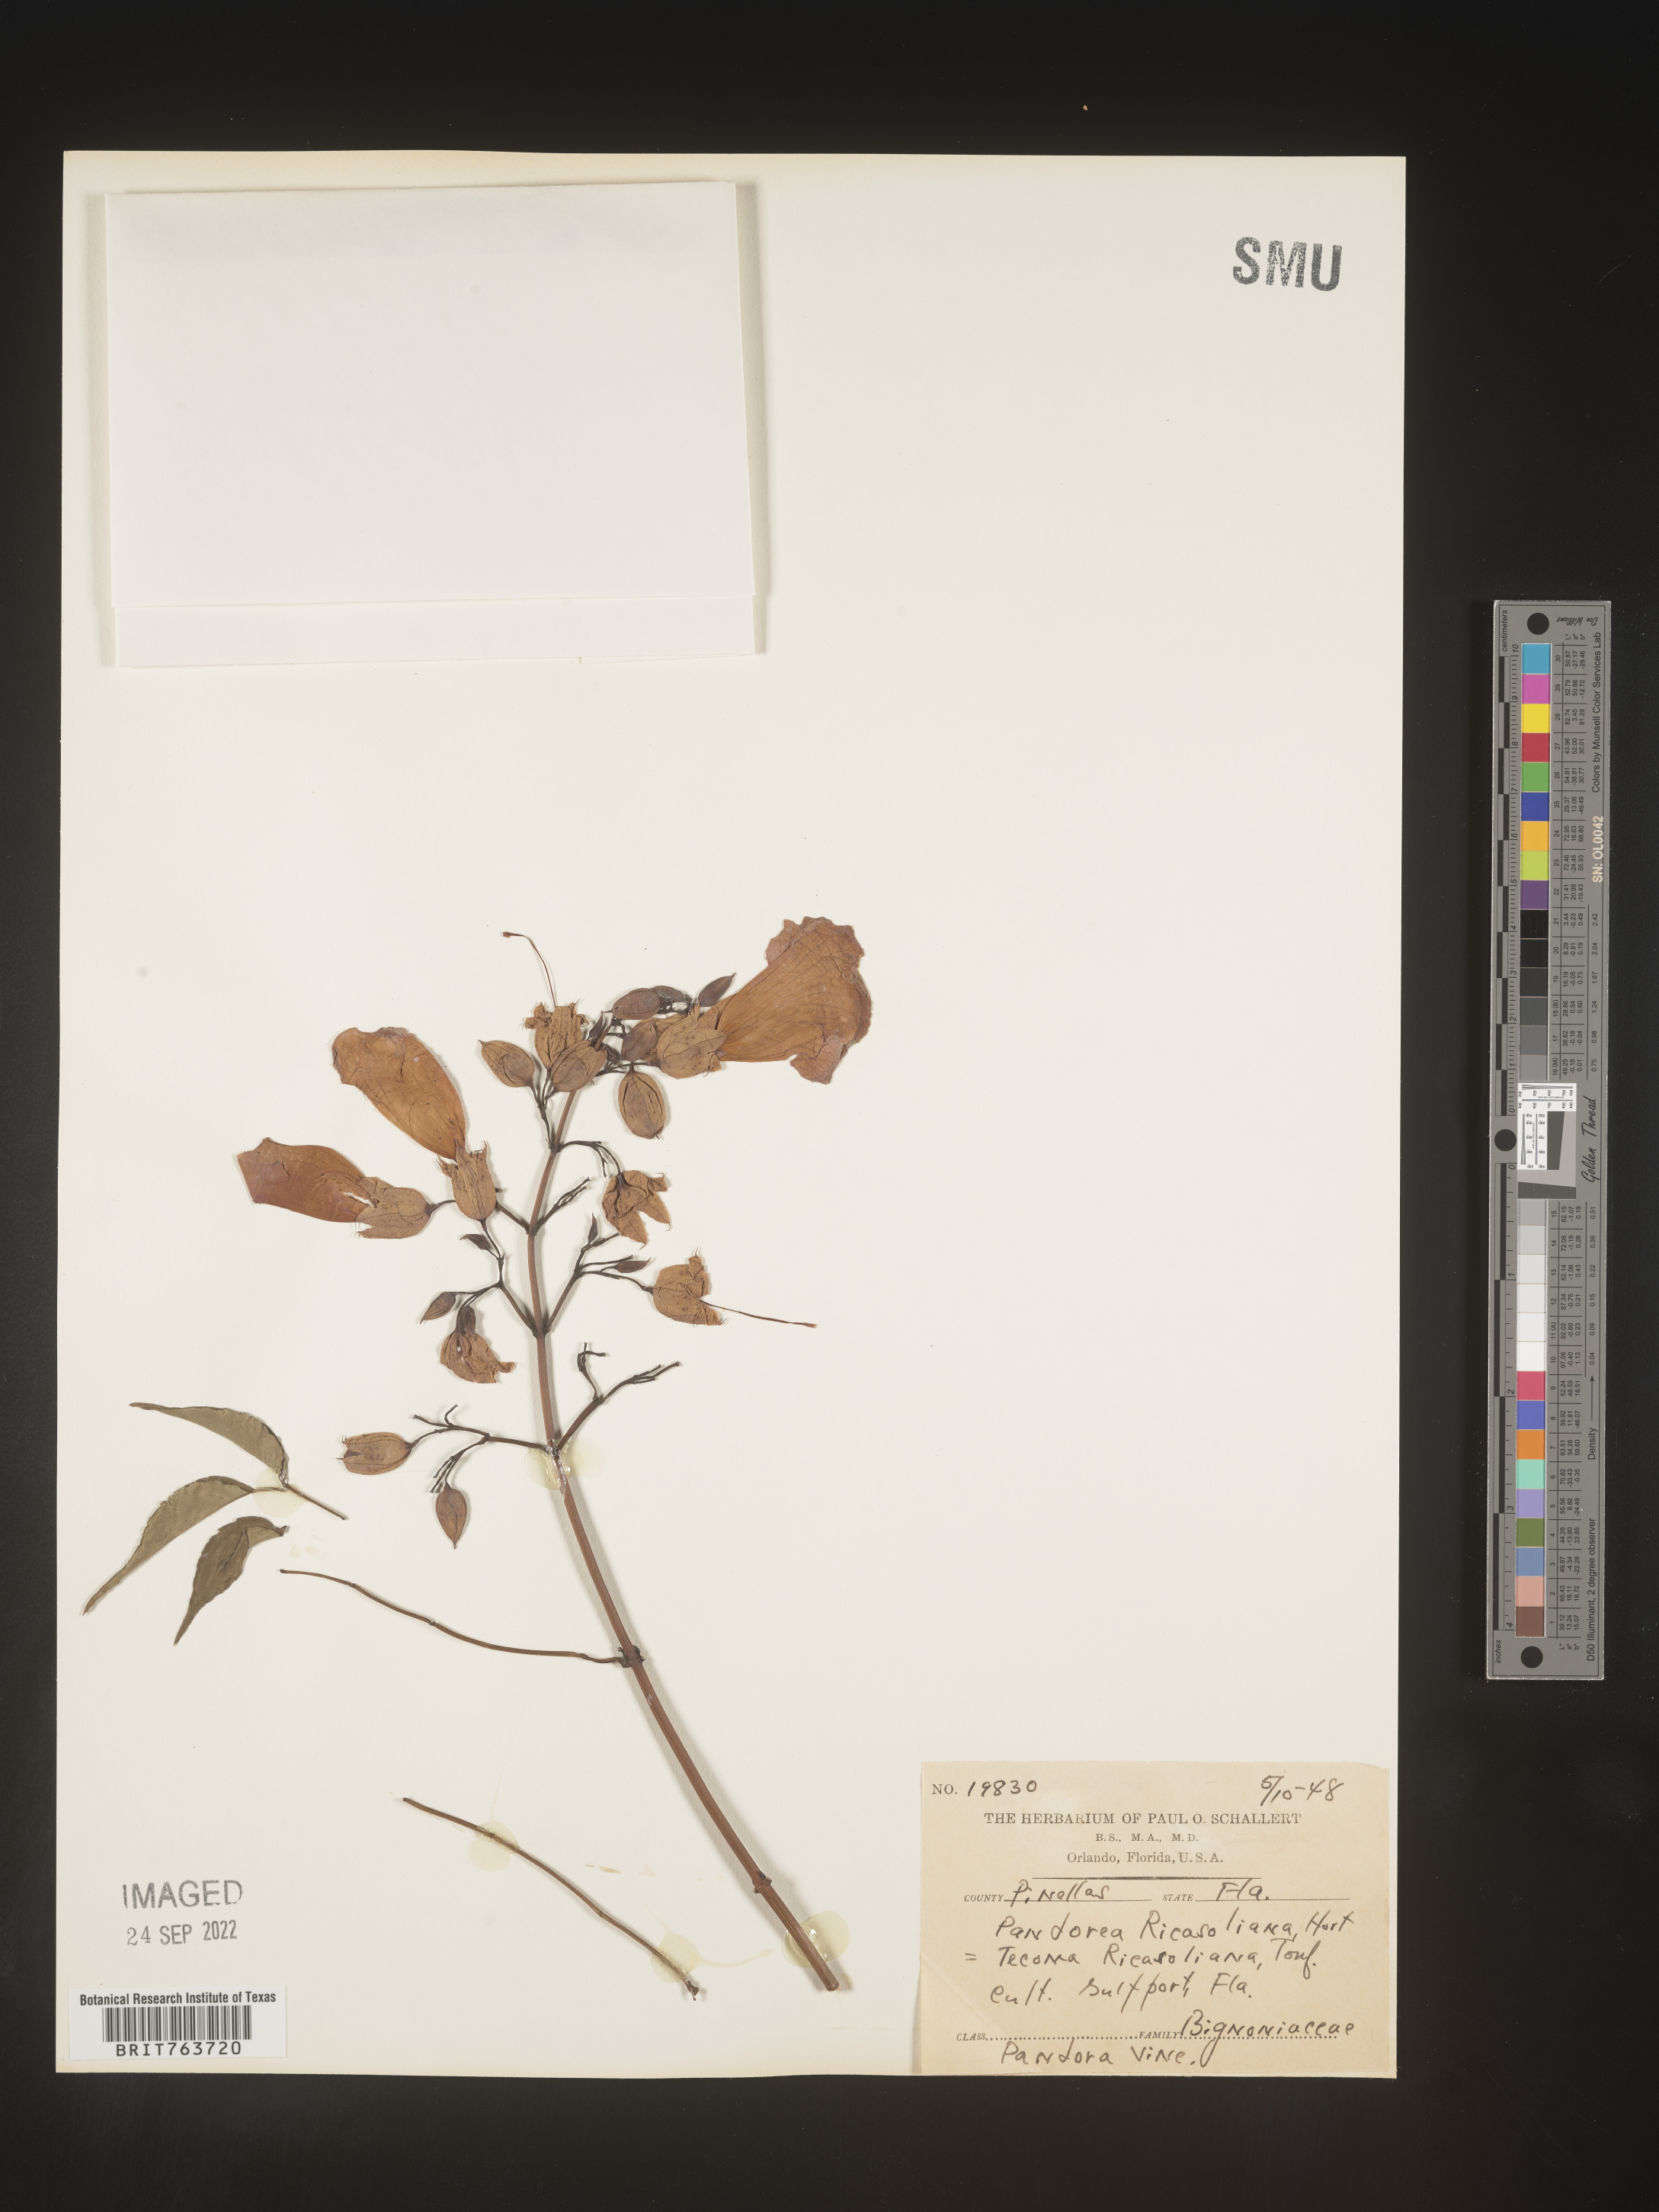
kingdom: Plantae
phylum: Tracheophyta
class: Magnoliopsida
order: Lamiales
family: Bignoniaceae
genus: Podranea
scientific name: Podranea
